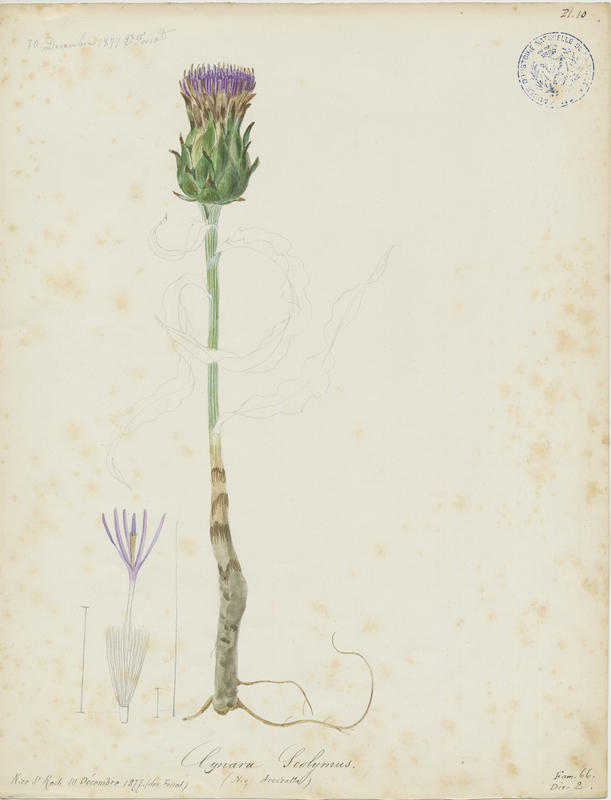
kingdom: Plantae
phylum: Tracheophyta
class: Magnoliopsida
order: Asterales
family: Asteraceae
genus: Cynara
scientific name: Cynara scolymus
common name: Globe artichoke
